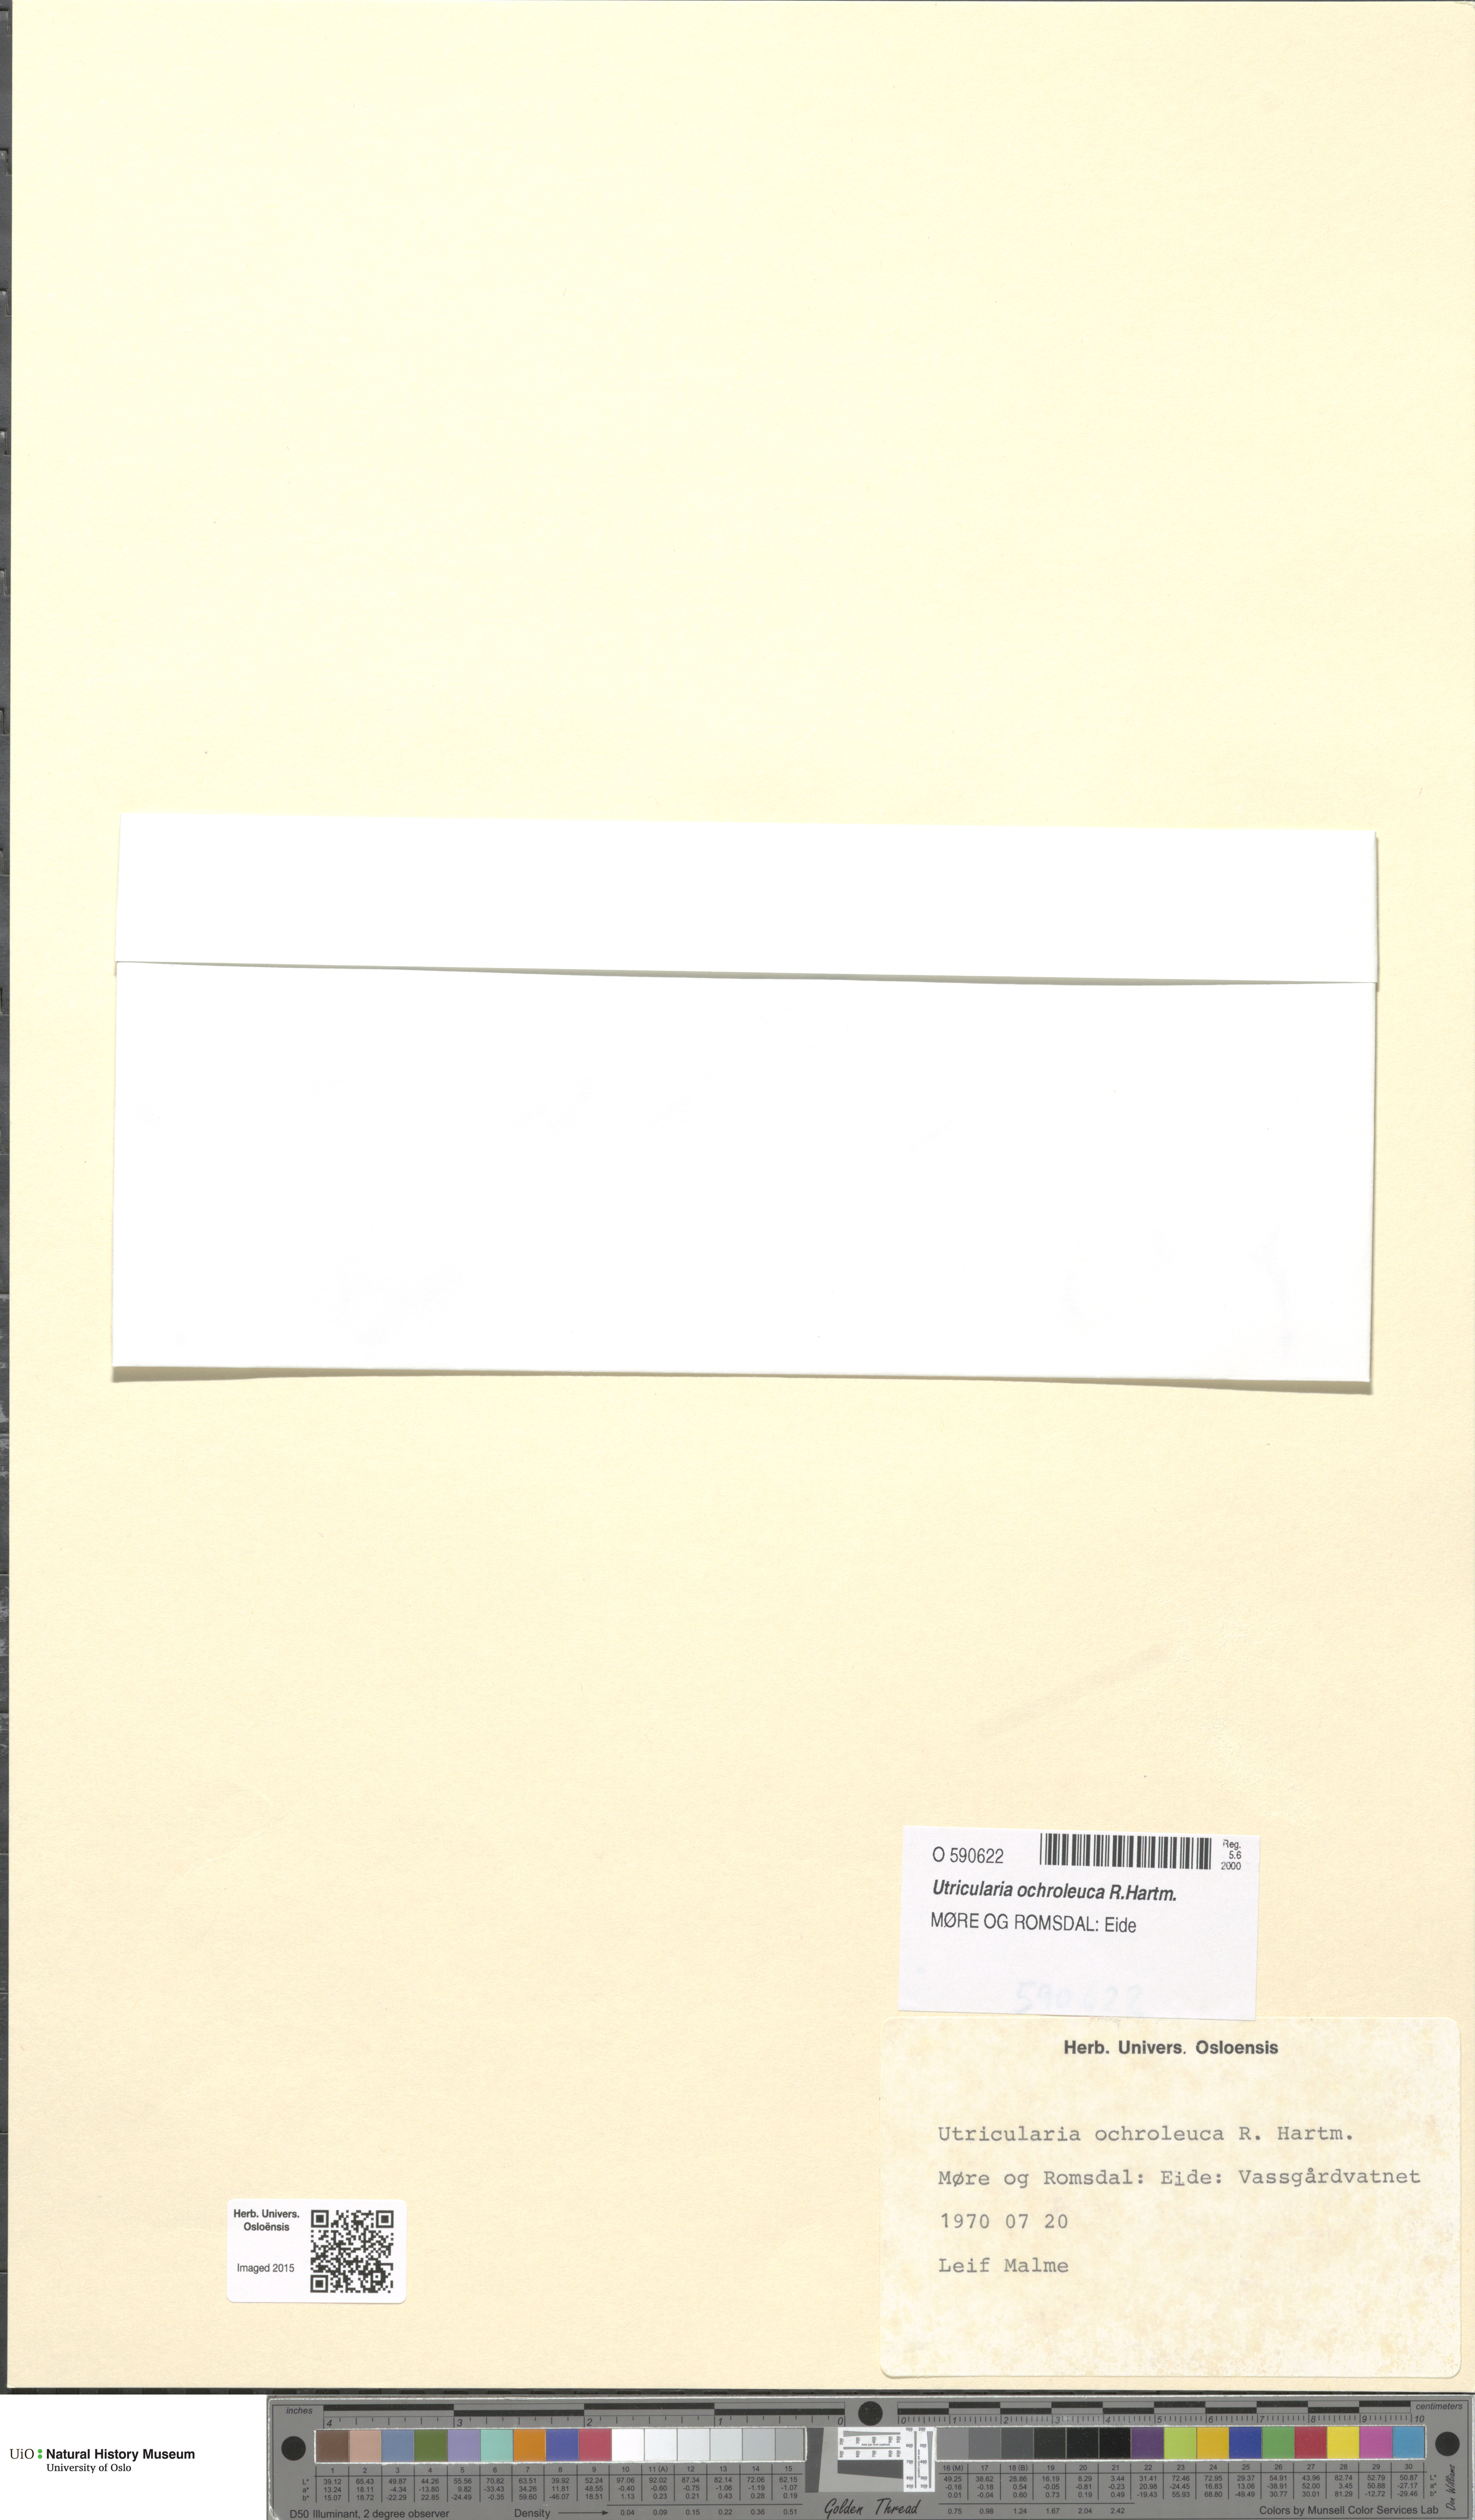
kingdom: Plantae
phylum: Tracheophyta
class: Magnoliopsida
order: Lamiales
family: Lentibulariaceae
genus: Utricularia
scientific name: Utricularia ochroleuca
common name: Pale bladderwort
